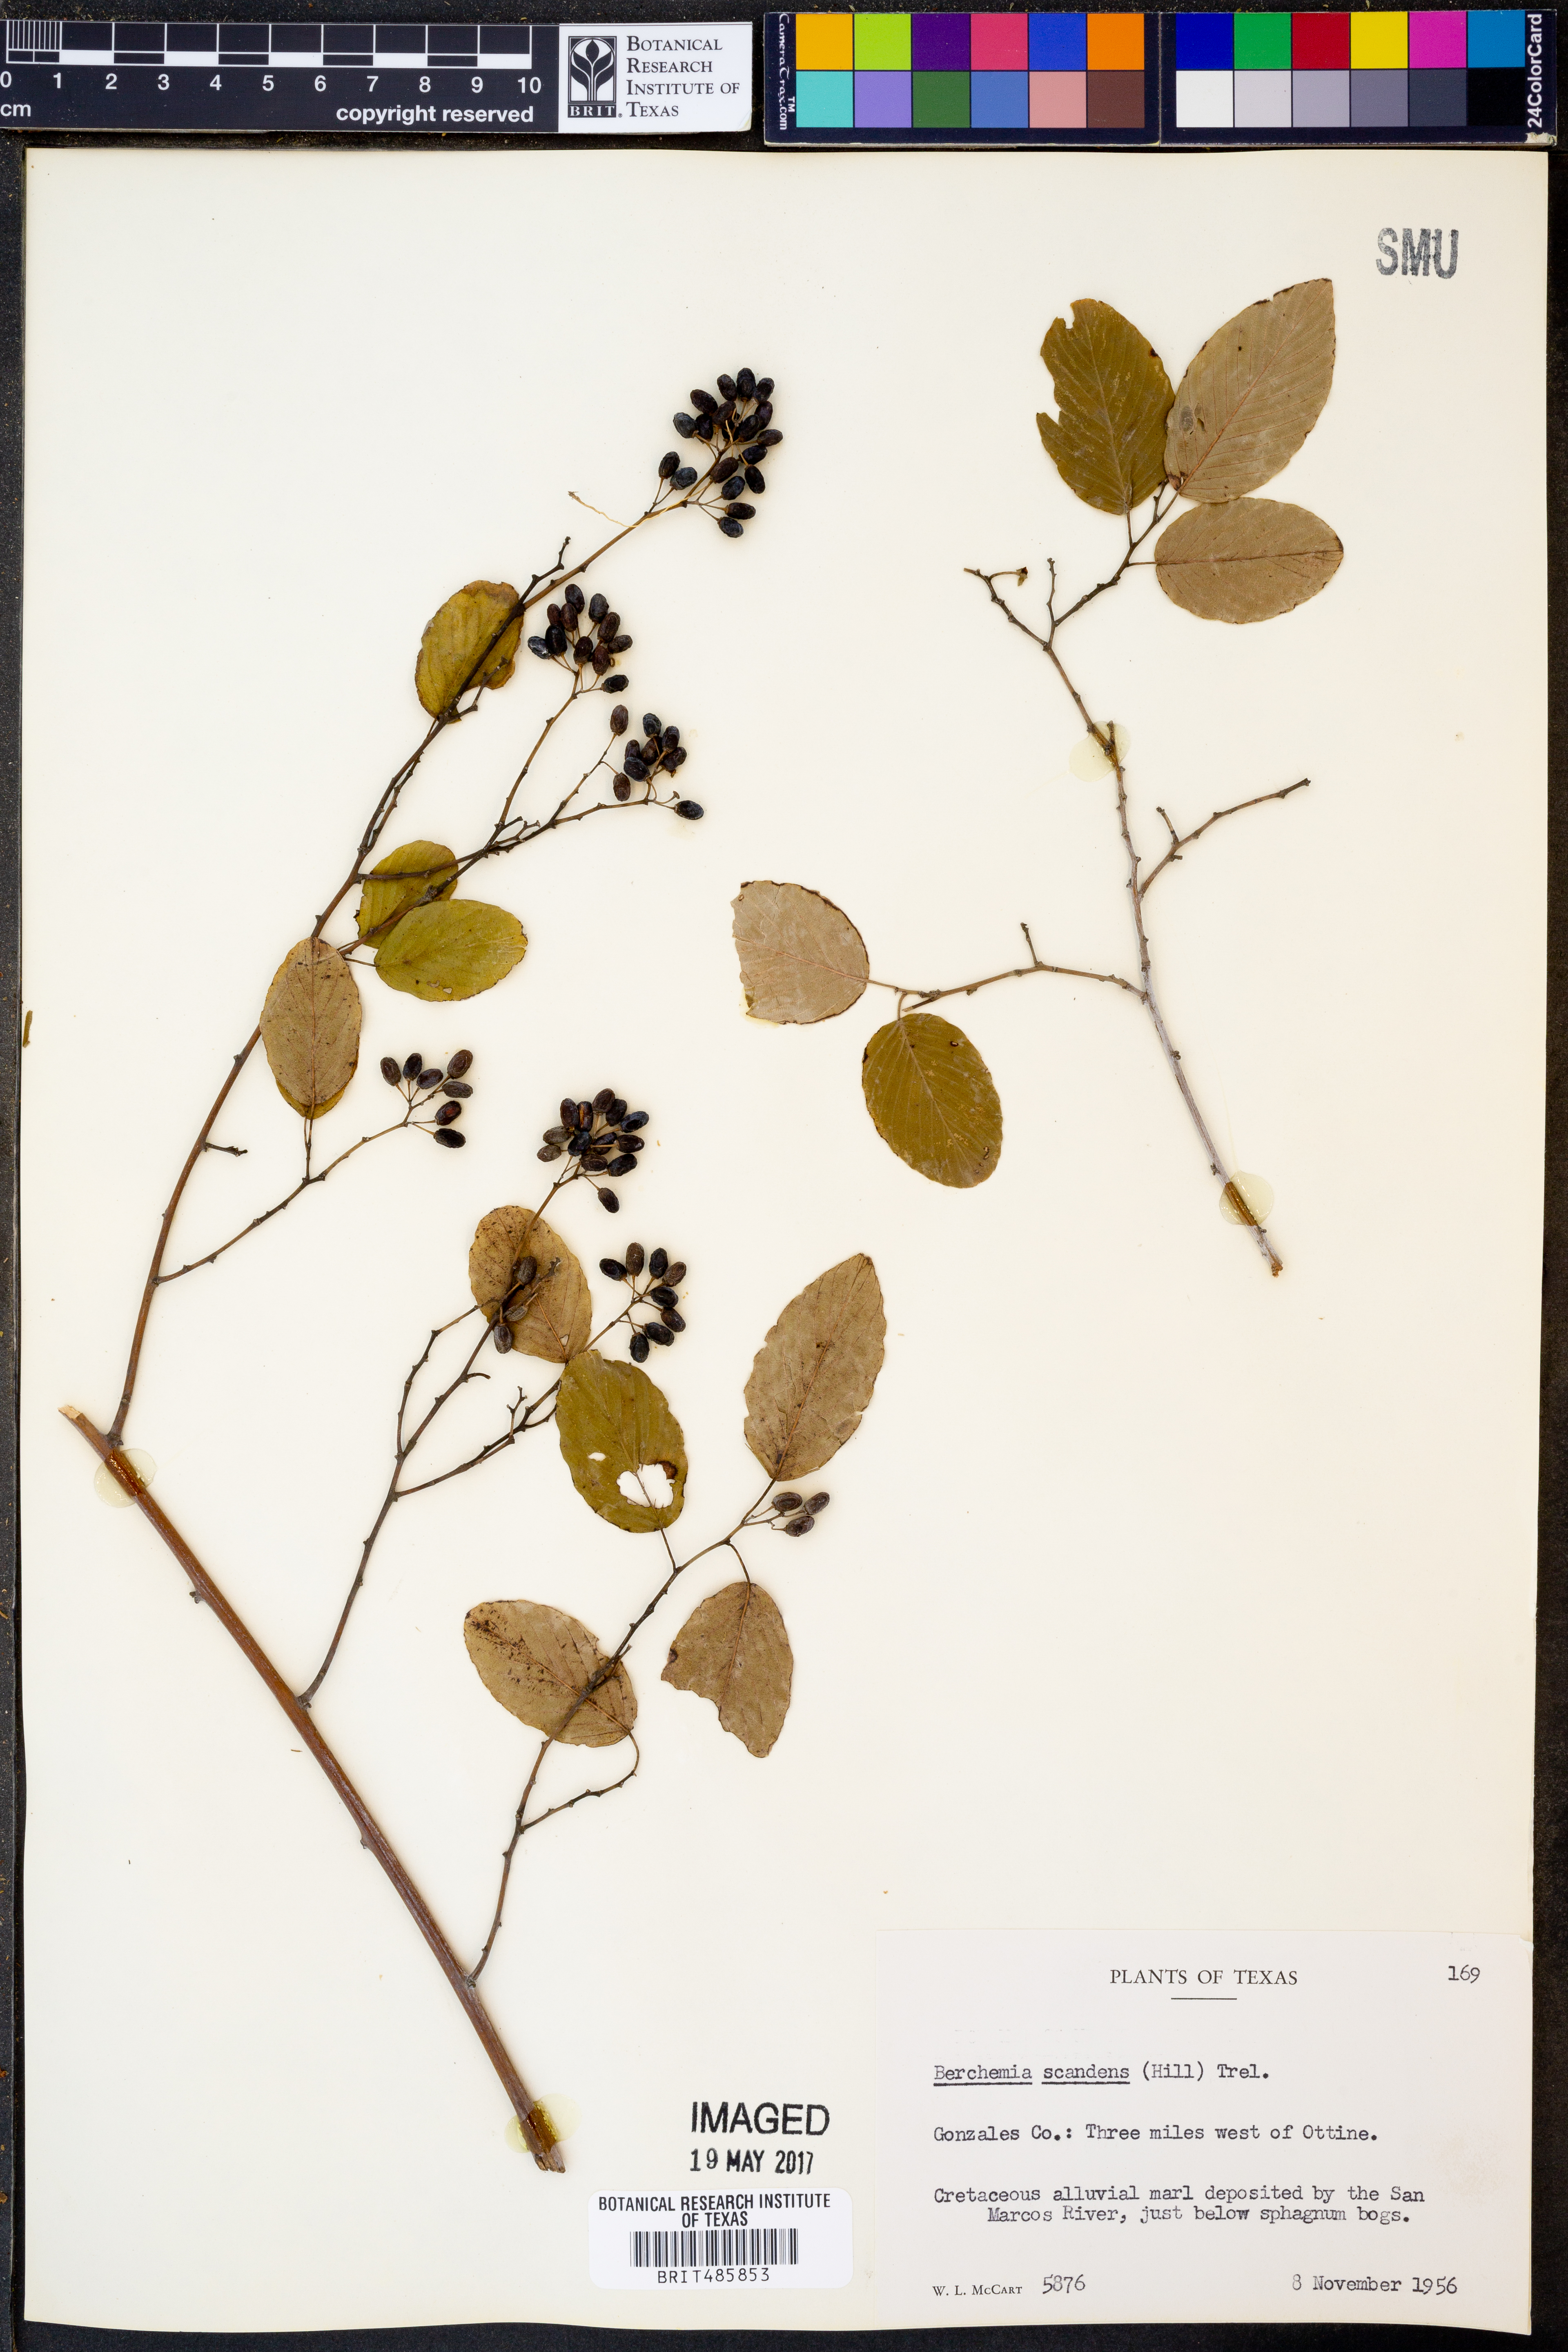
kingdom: Plantae
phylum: Tracheophyta
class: Magnoliopsida
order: Rosales
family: Rhamnaceae
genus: Berchemia
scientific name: Berchemia scandens
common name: Supplejack
